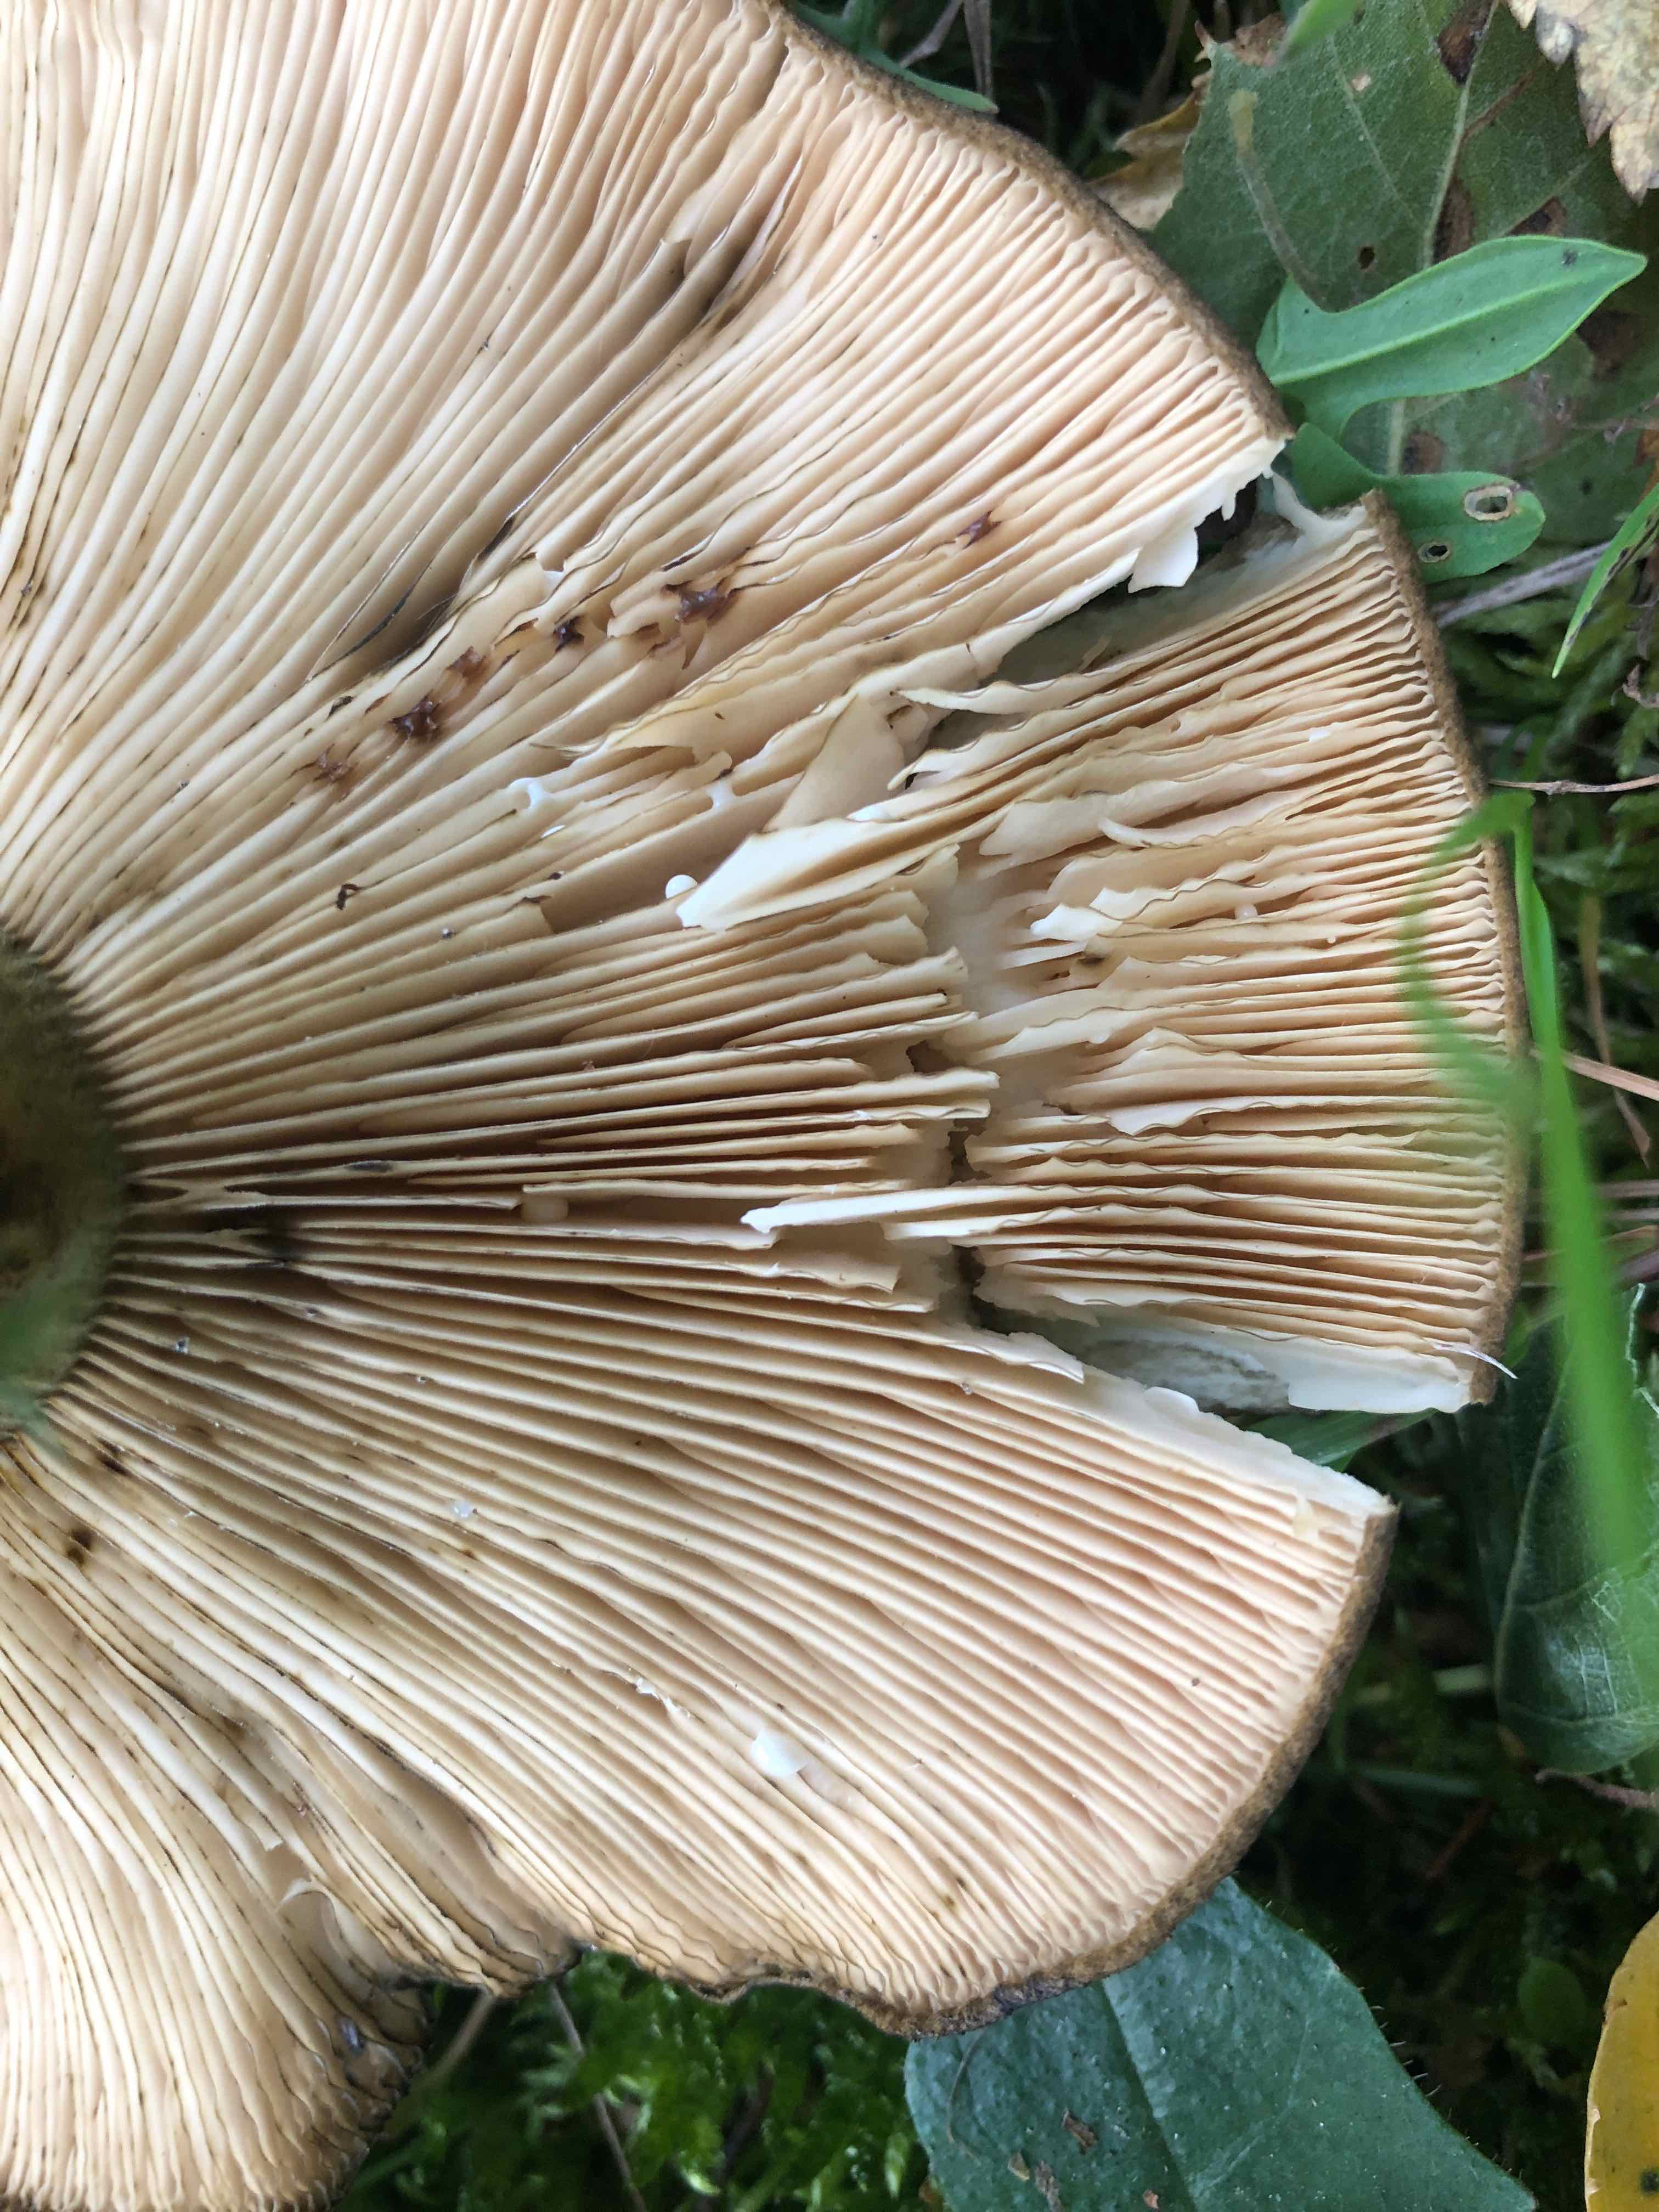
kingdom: Fungi
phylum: Basidiomycota
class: Agaricomycetes
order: Russulales
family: Russulaceae
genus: Lactarius
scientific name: Lactarius necator
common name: manddraber-mælkehat
